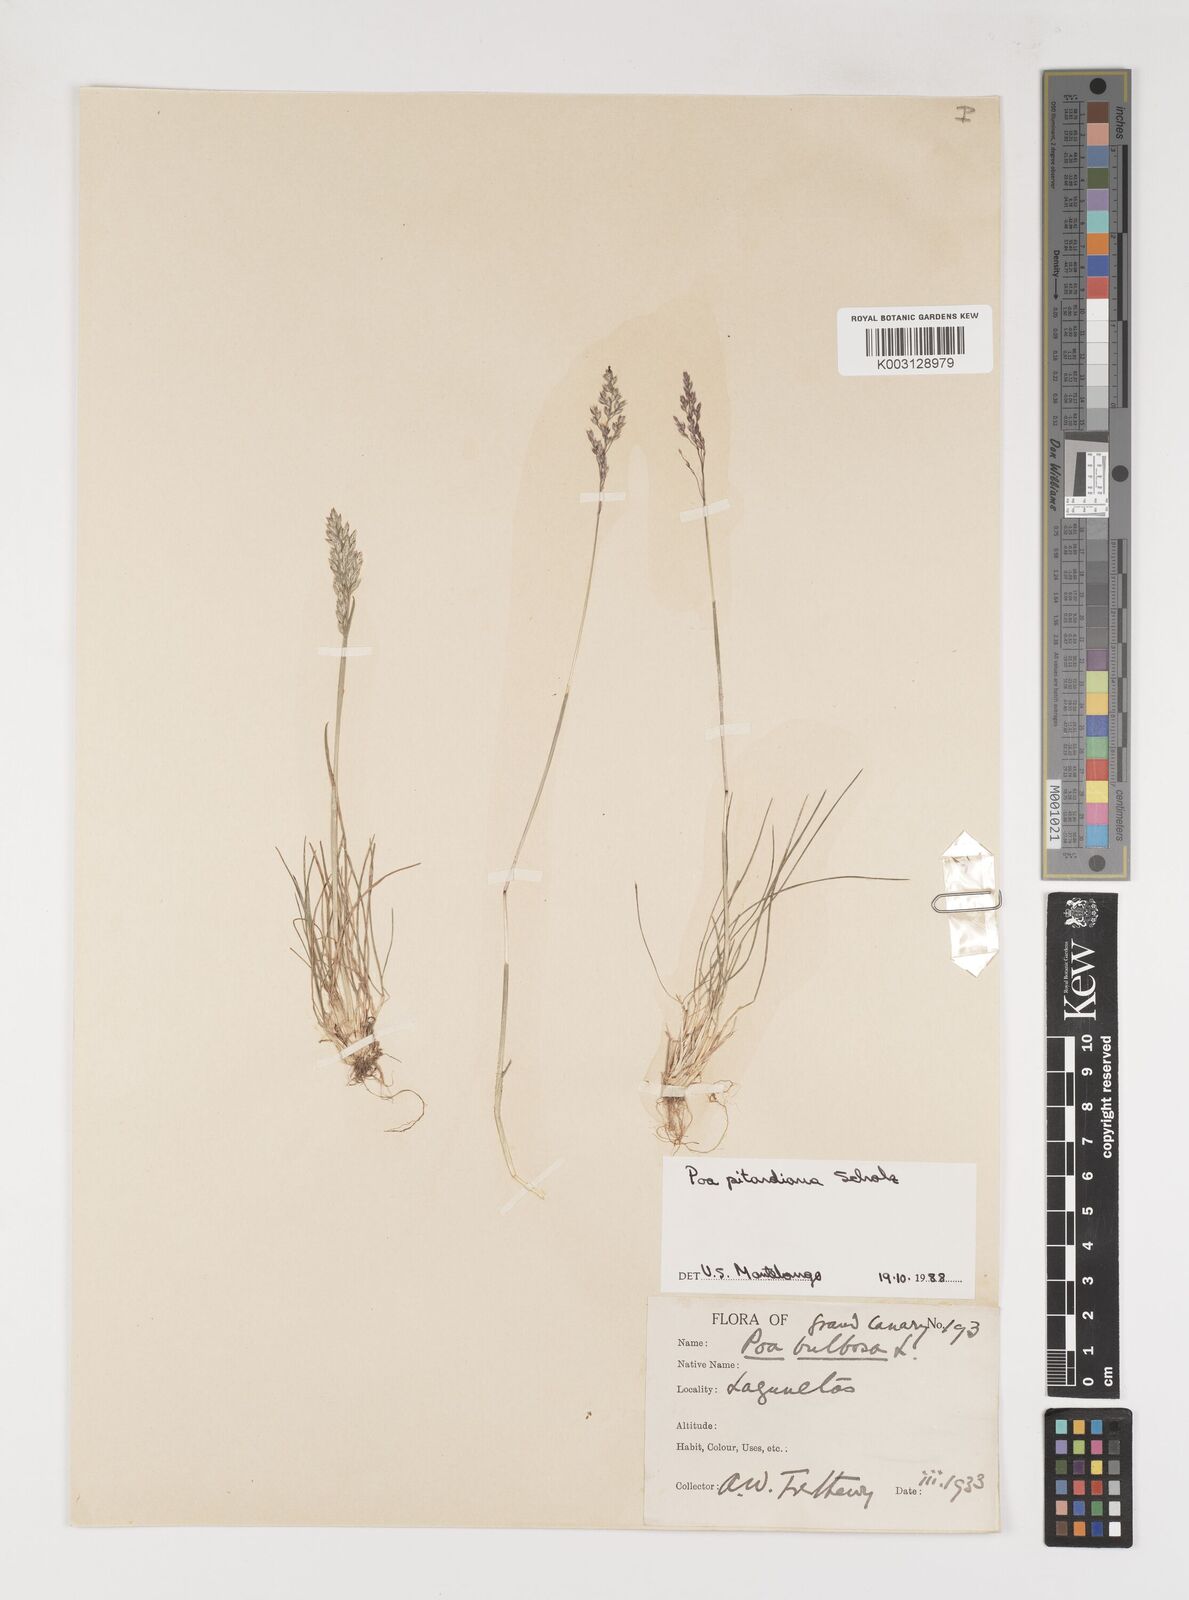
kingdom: Plantae
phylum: Tracheophyta
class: Liliopsida
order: Poales
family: Poaceae
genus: Poa
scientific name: Poa pitardiana
